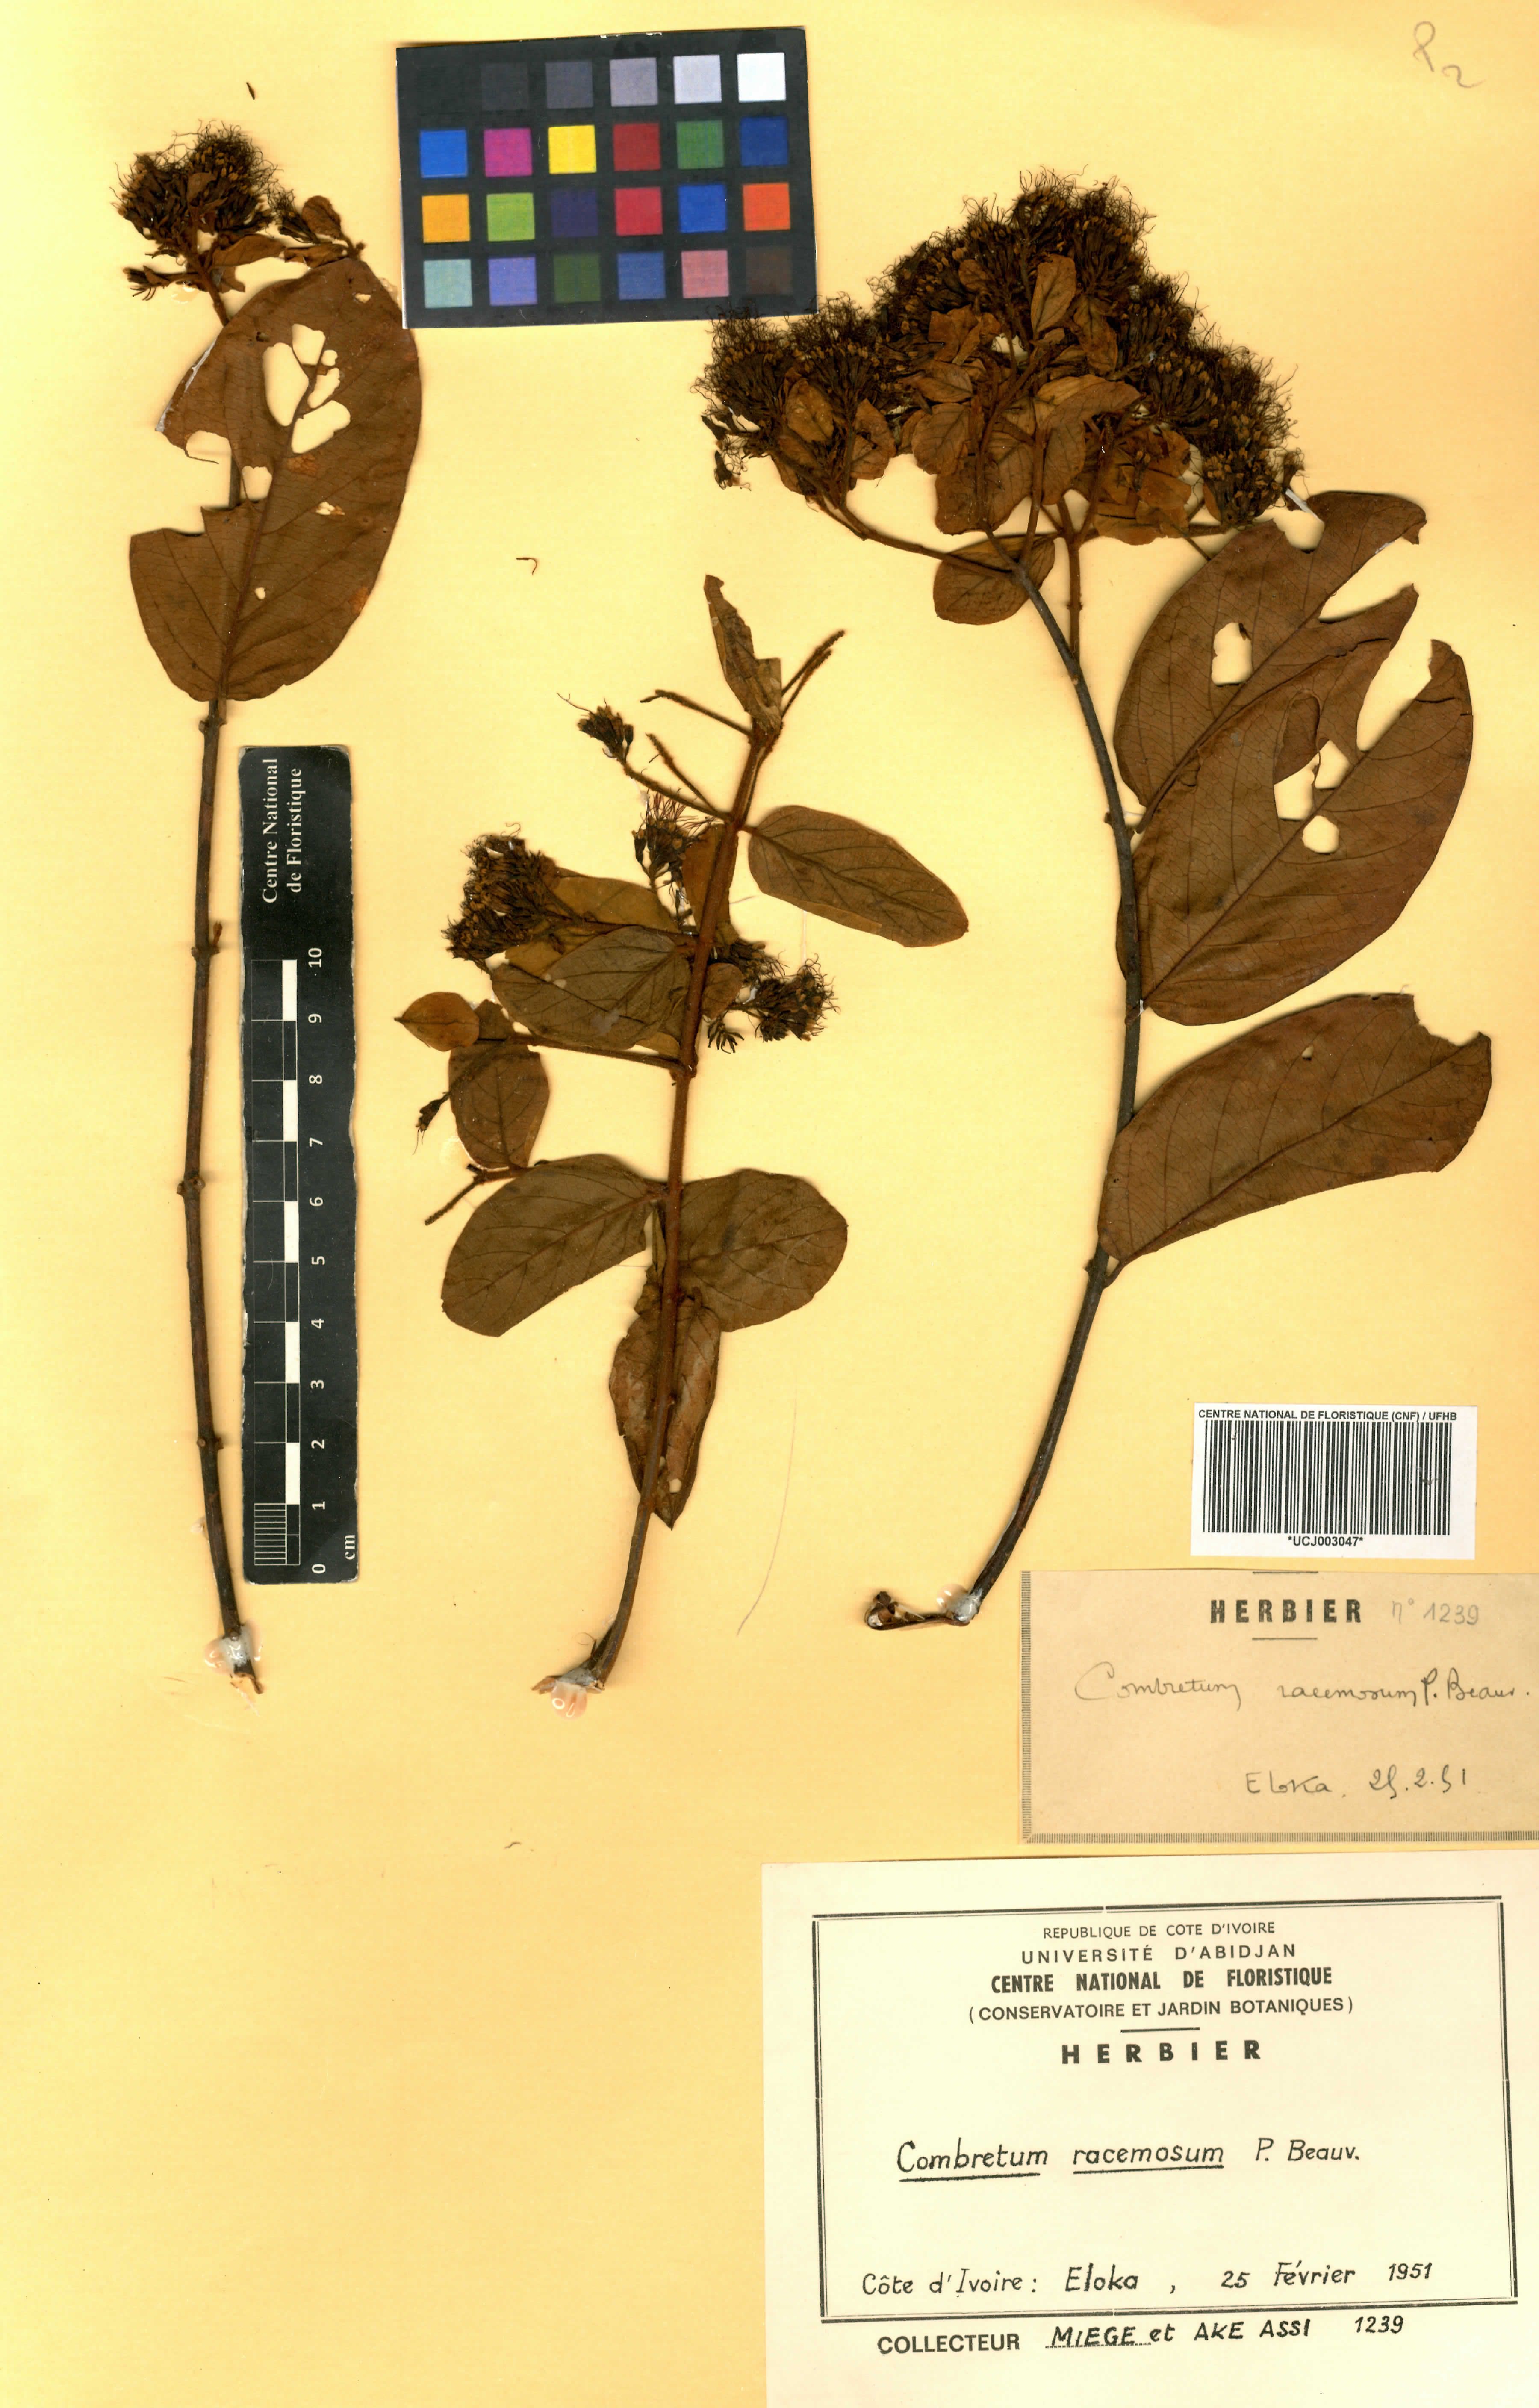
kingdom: Plantae
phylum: Tracheophyta
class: Magnoliopsida
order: Myrtales
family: Combretaceae
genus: Combretum
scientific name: Combretum racemosum
